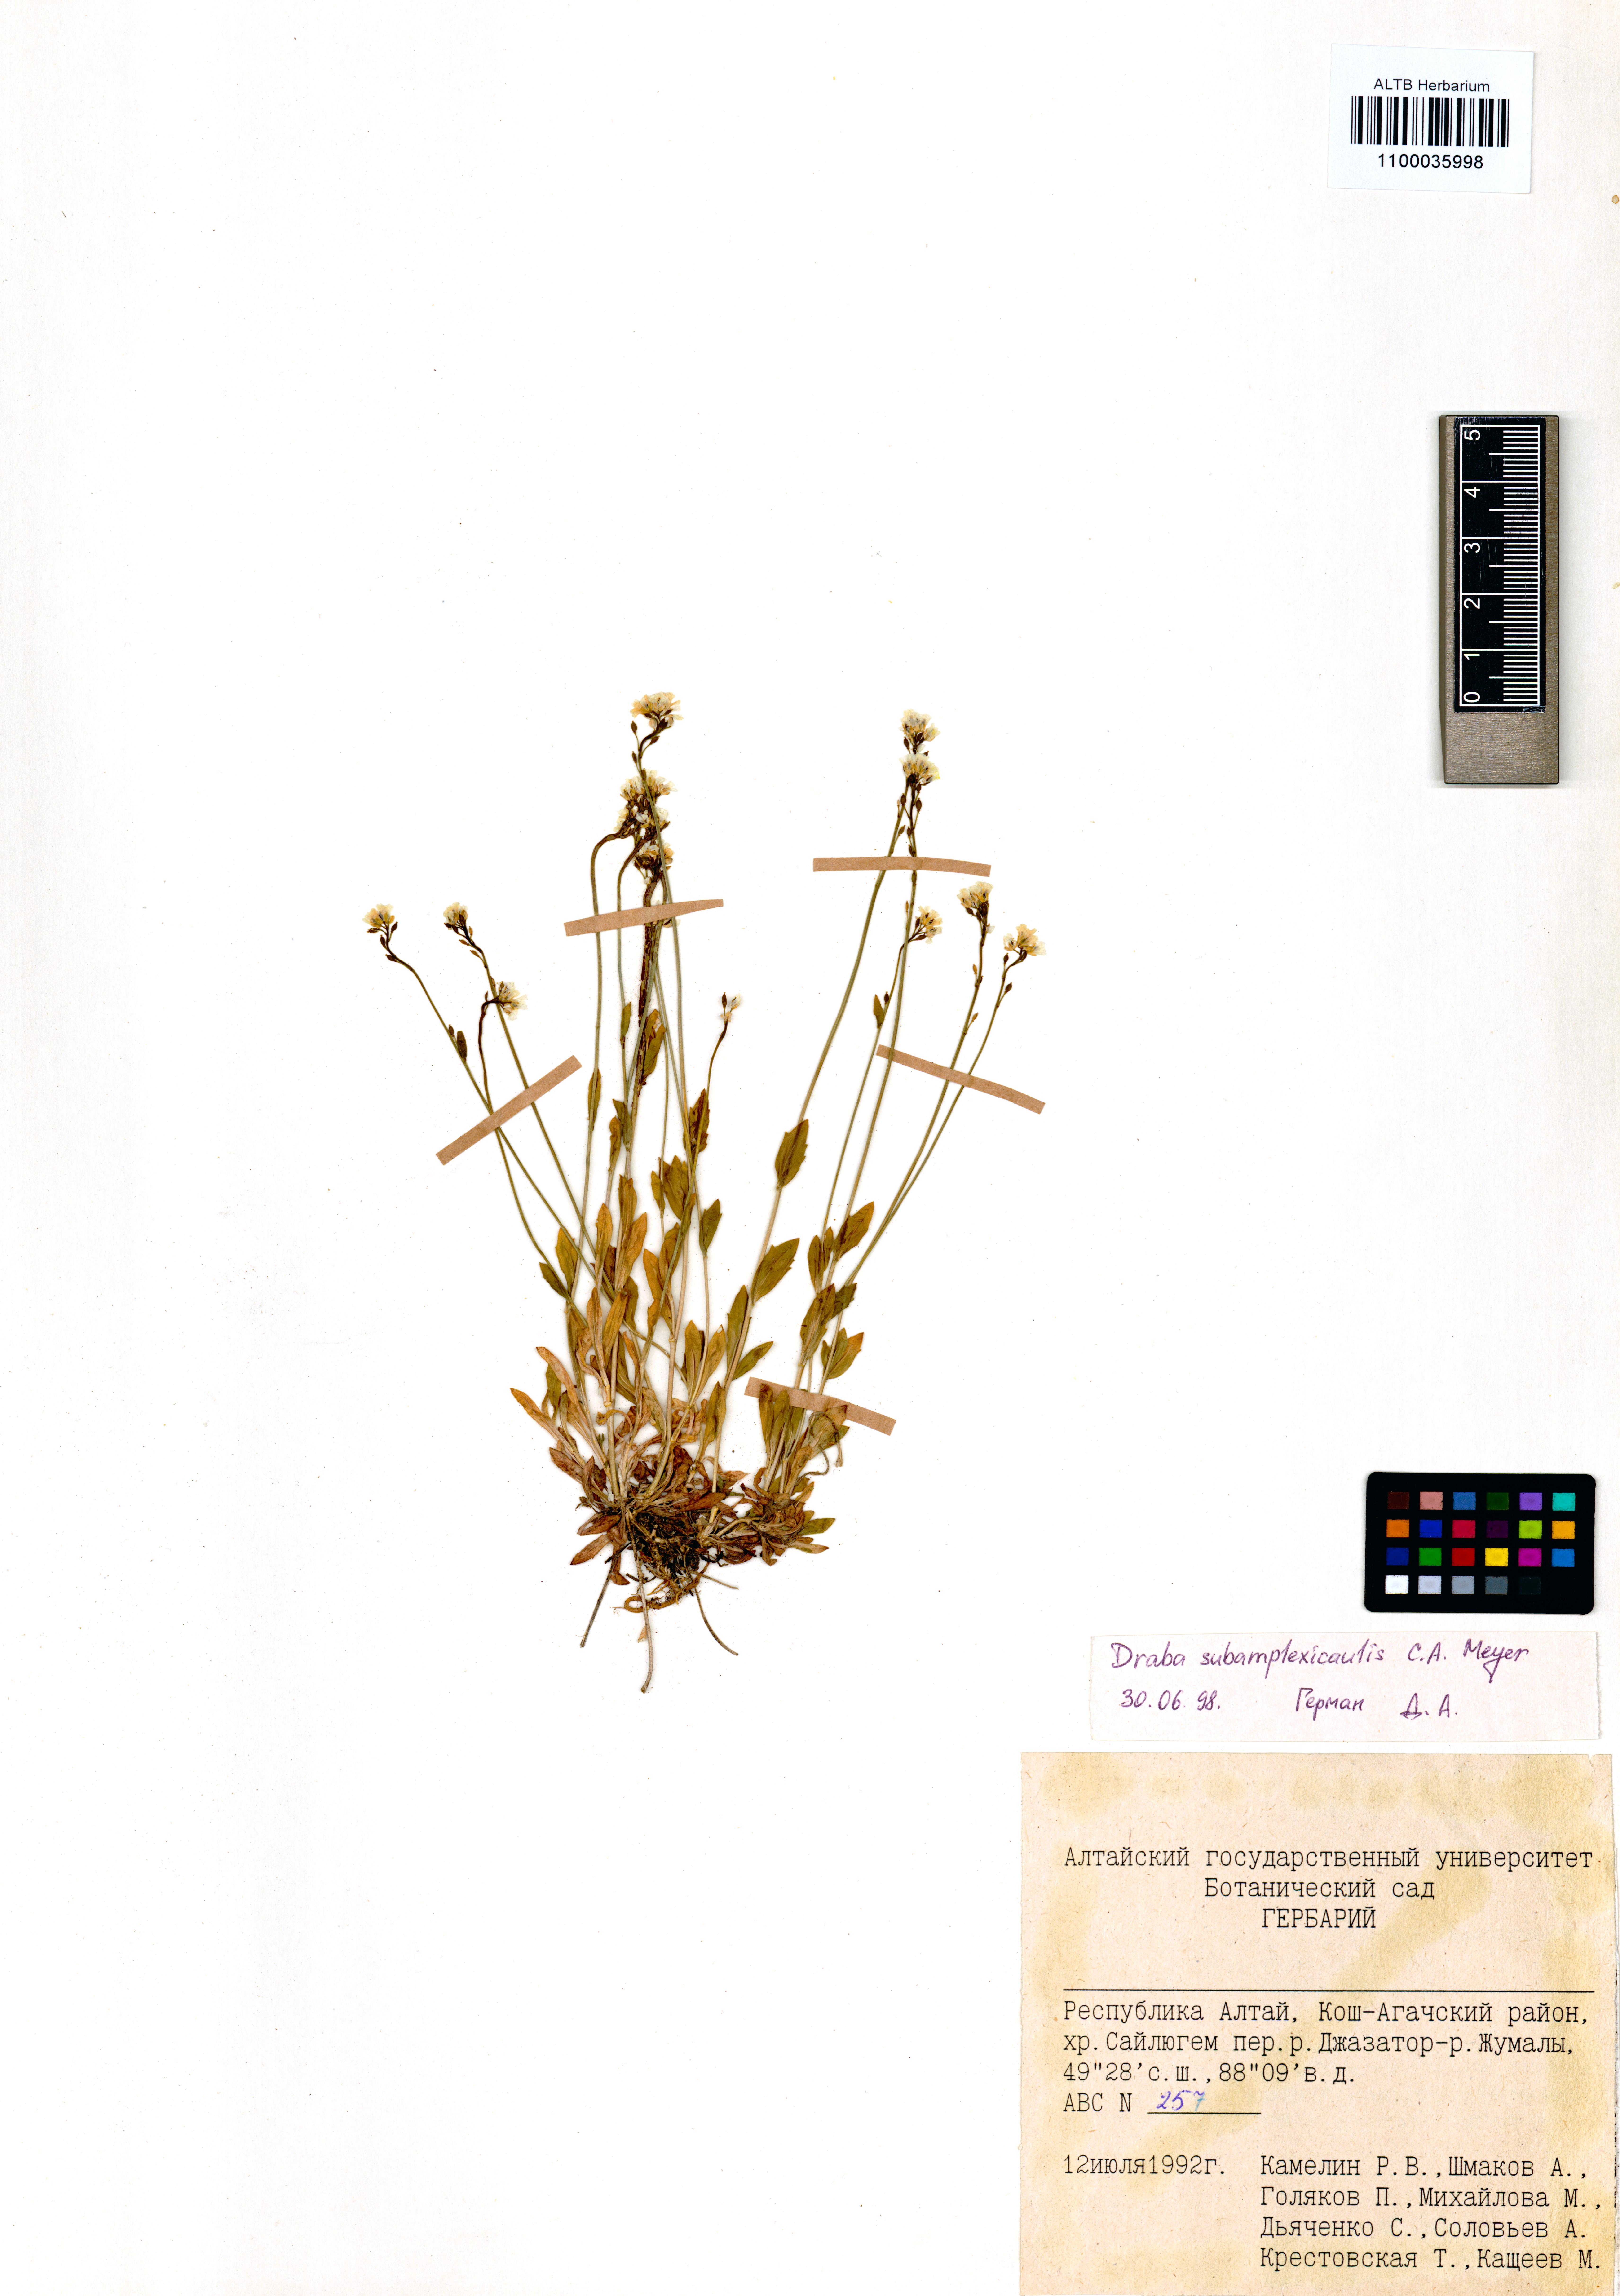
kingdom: Plantae
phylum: Tracheophyta
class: Magnoliopsida
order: Brassicales
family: Brassicaceae
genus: Draba
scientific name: Draba subamplexicaulis
